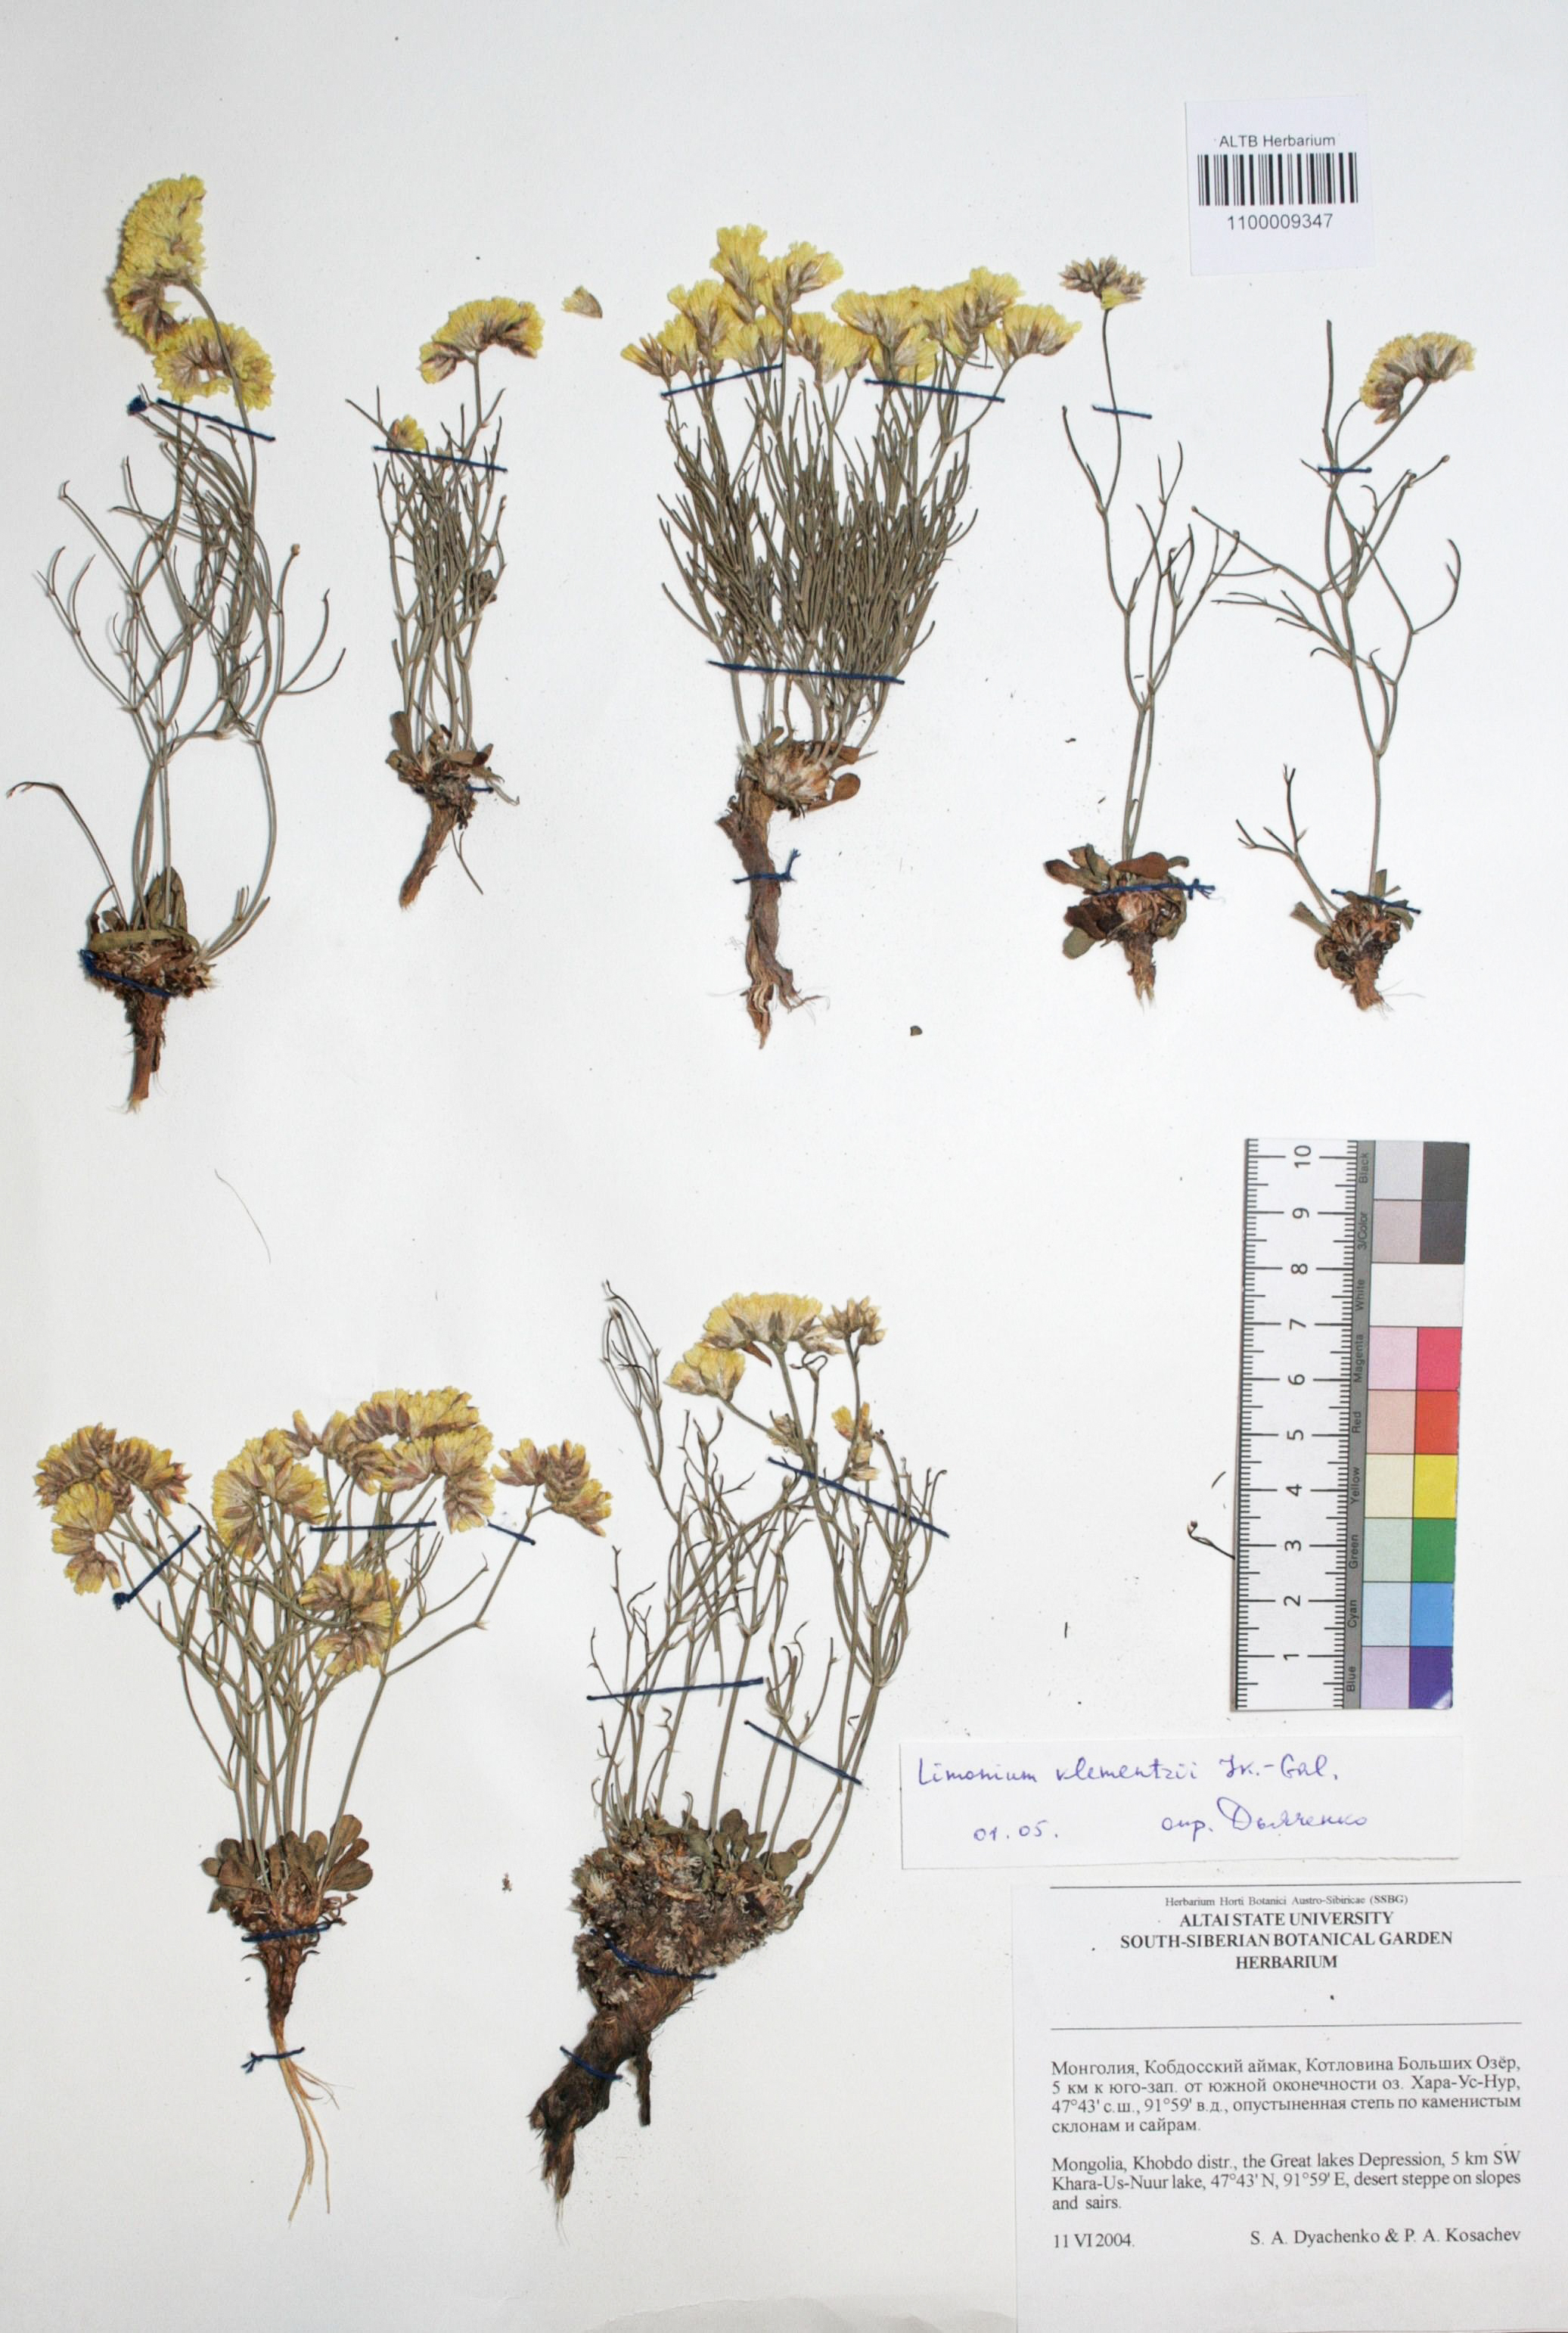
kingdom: Plantae
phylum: Tracheophyta
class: Magnoliopsida
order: Caryophyllales
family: Plumbaginaceae
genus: Limonium
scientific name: Limonium gmelini
